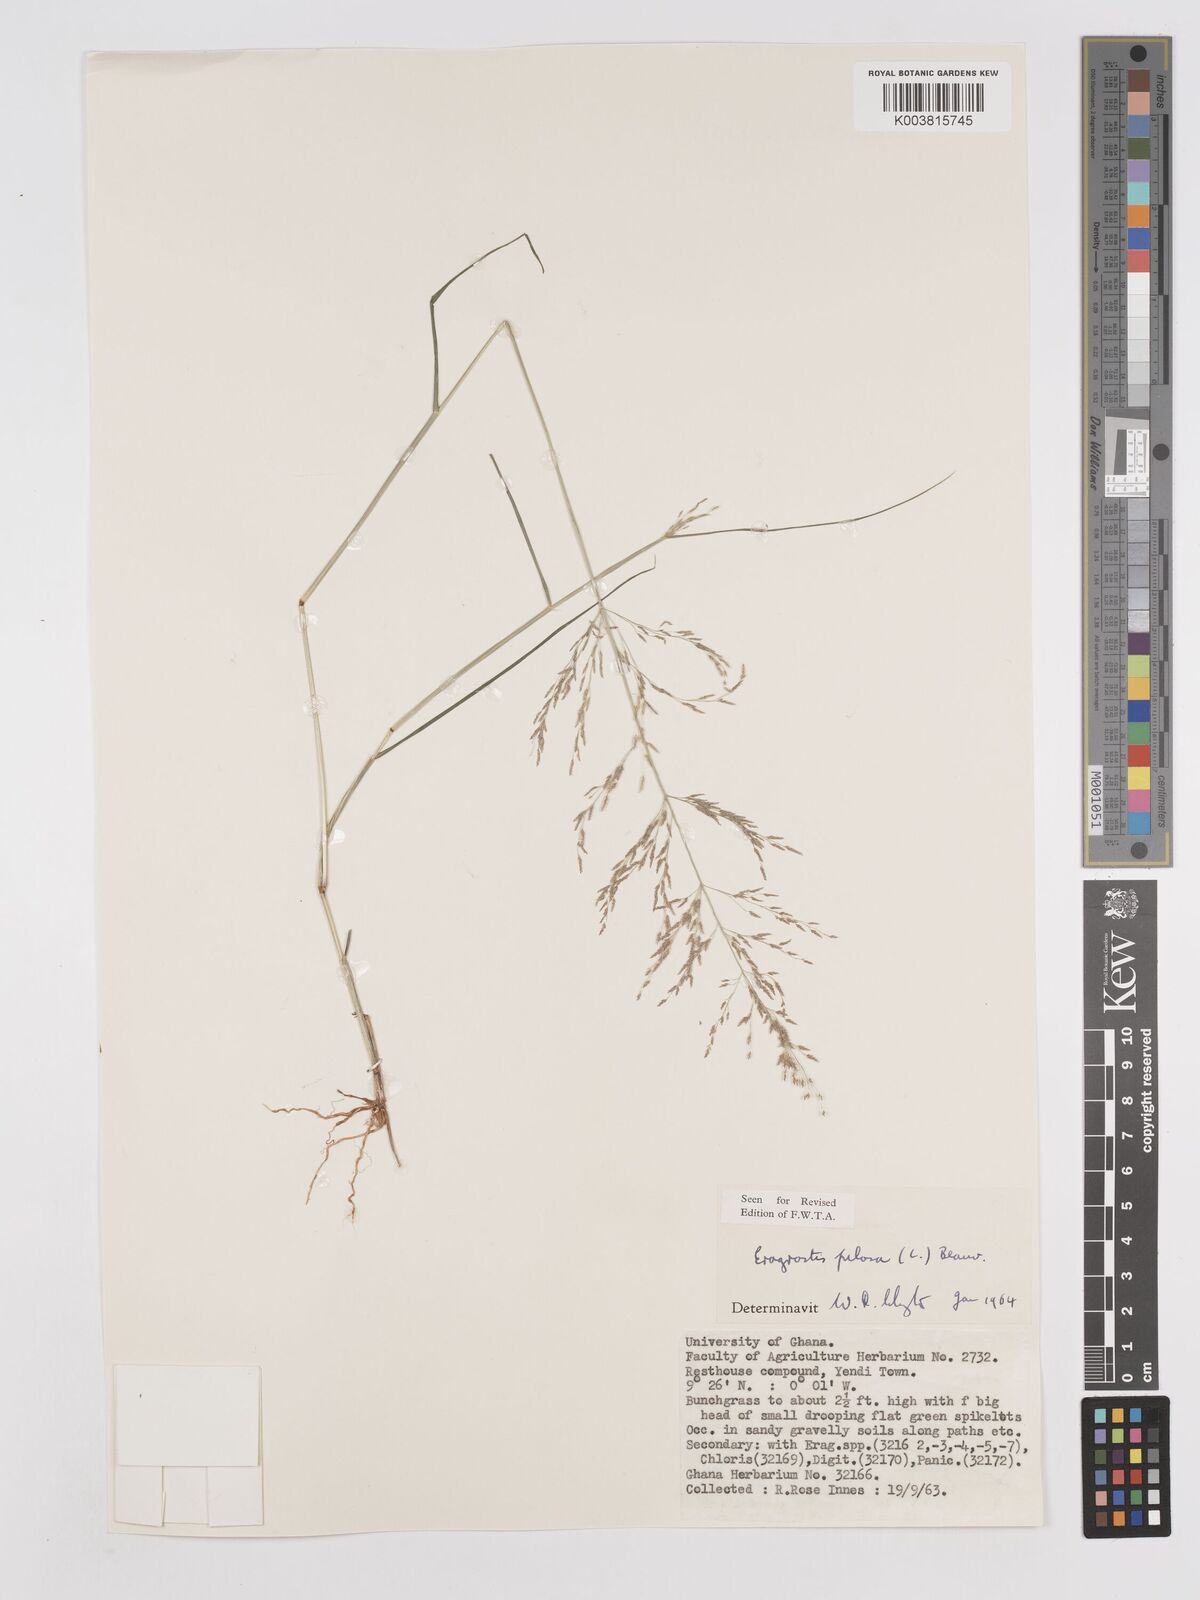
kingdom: Plantae
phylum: Tracheophyta
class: Liliopsida
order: Poales
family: Poaceae
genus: Eragrostis
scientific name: Eragrostis pilosa
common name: Indian lovegrass
